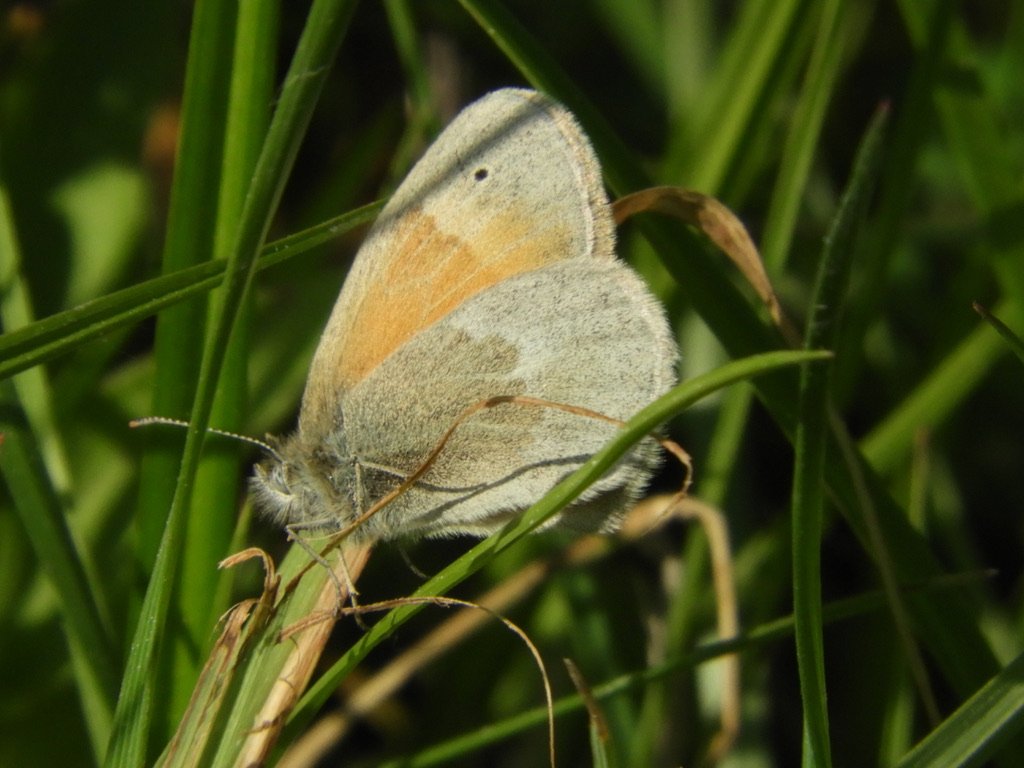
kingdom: Animalia
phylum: Arthropoda
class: Insecta
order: Lepidoptera
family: Nymphalidae
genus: Coenonympha
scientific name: Coenonympha tullia
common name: Large Heath
